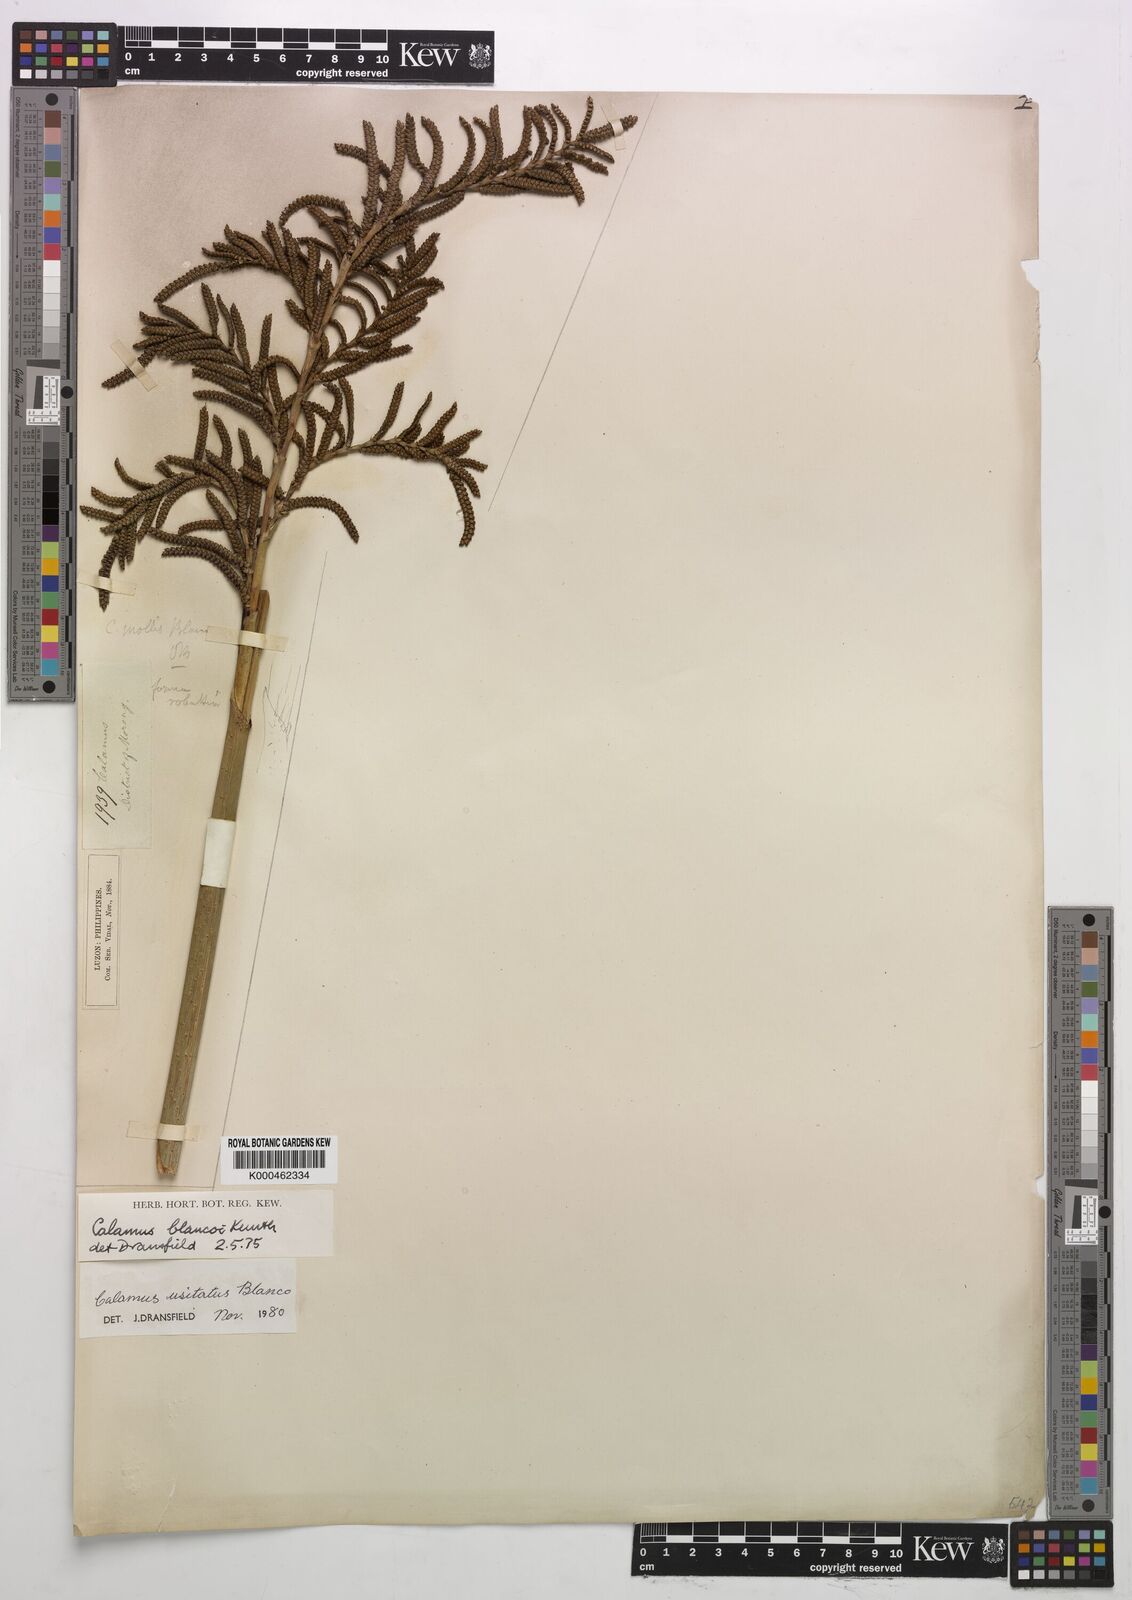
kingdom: Plantae
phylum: Tracheophyta
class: Liliopsida
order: Arecales
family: Arecaceae
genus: Calamus
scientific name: Calamus usitatus
